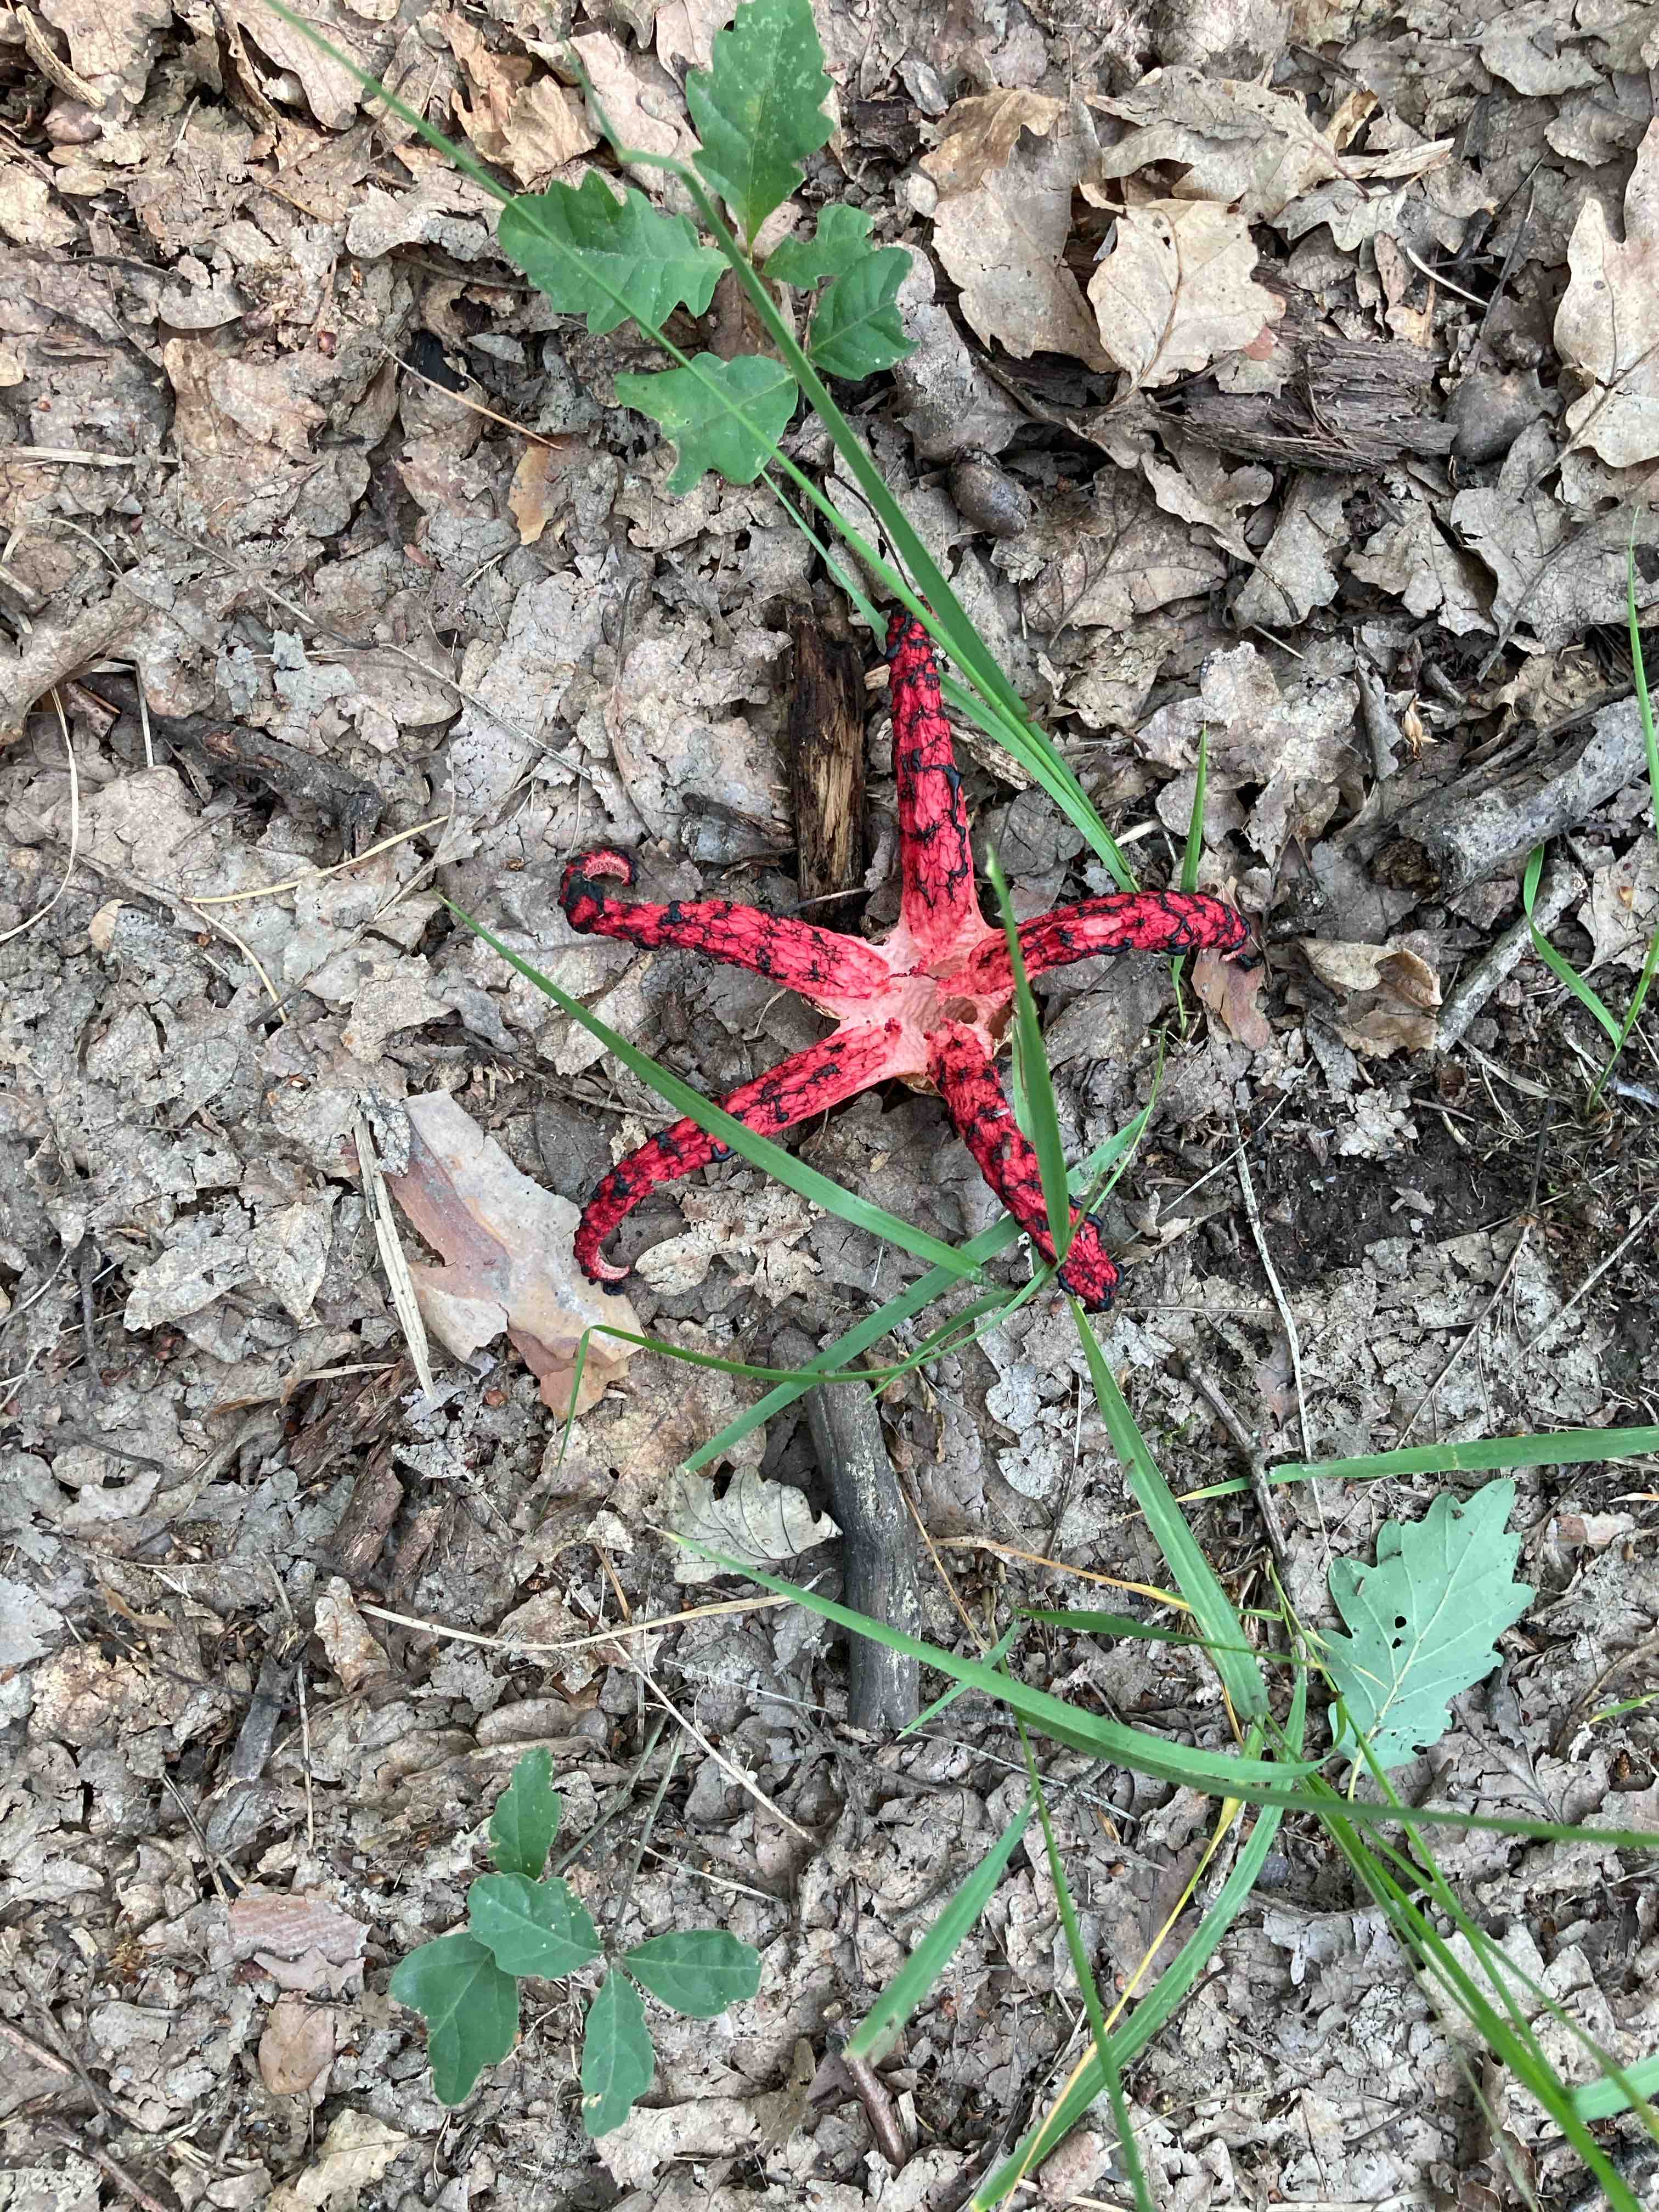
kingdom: Fungi
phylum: Basidiomycota
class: Agaricomycetes
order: Phallales
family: Phallaceae
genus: Clathrus
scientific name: Clathrus archeri
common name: blækspruttesvamp
